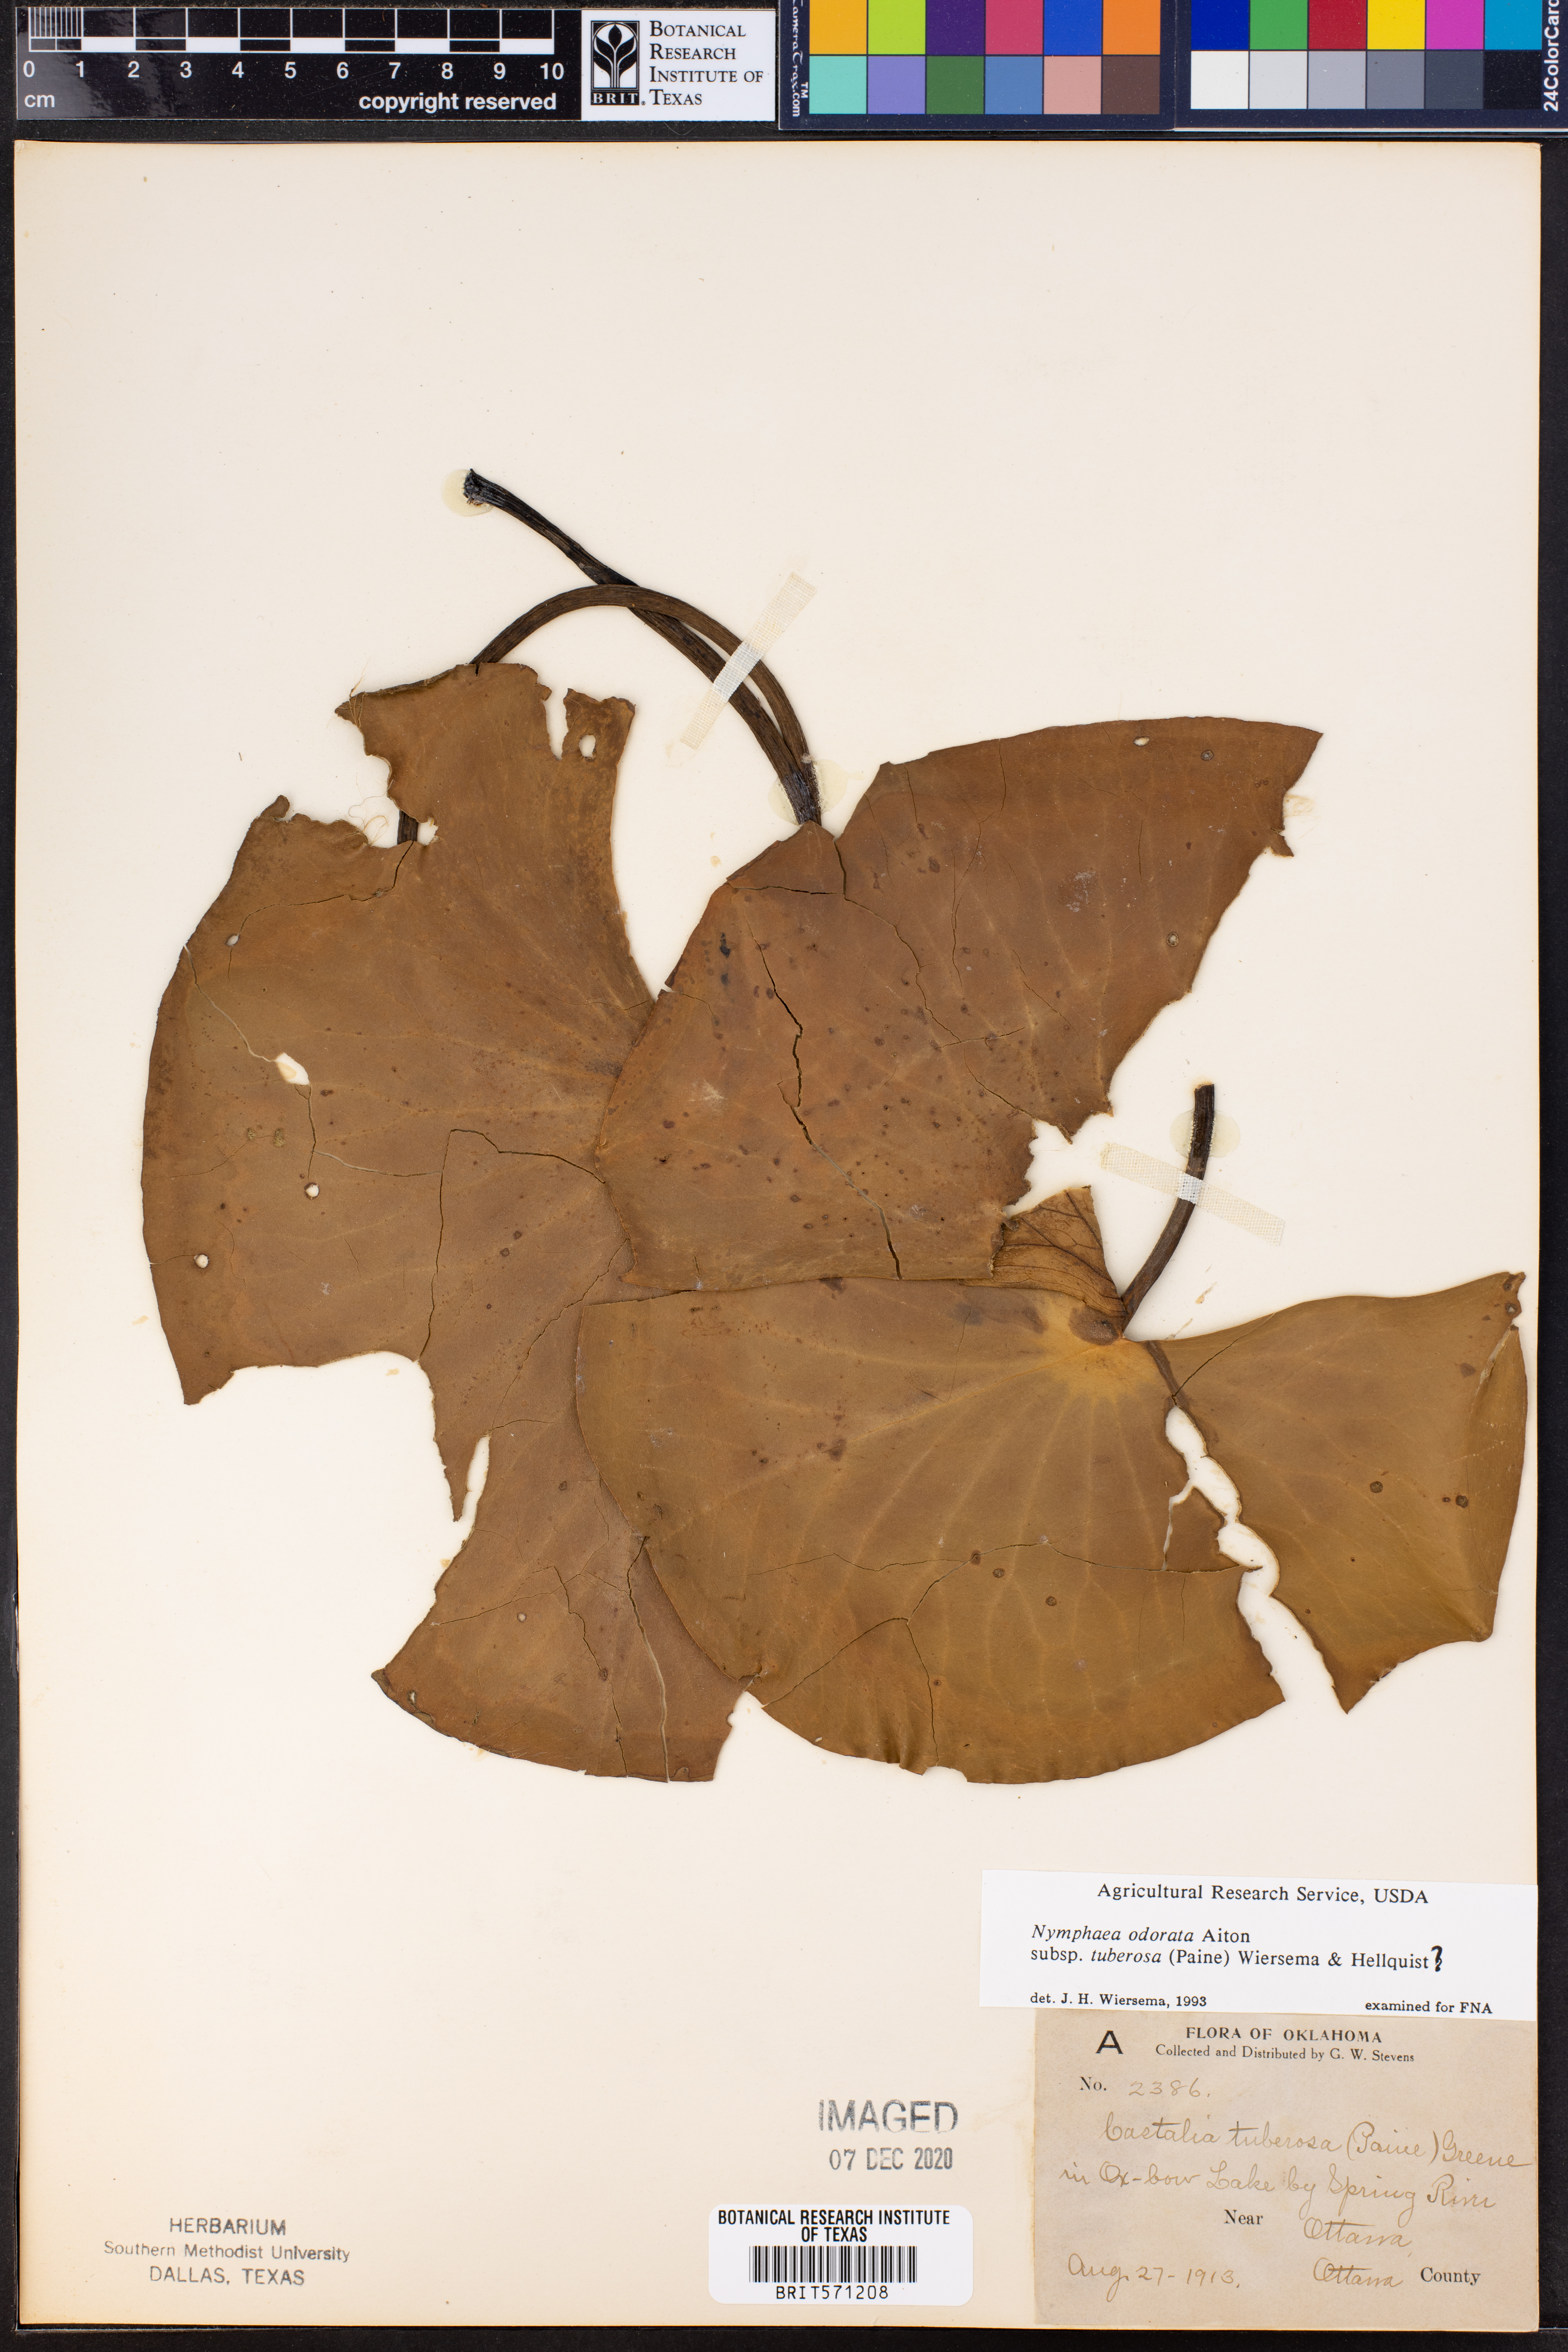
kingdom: Plantae
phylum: Tracheophyta
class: Magnoliopsida
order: Nymphaeales
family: Nymphaeaceae
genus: Nymphaea
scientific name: Nymphaea odorata
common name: Fragrant water-lily
